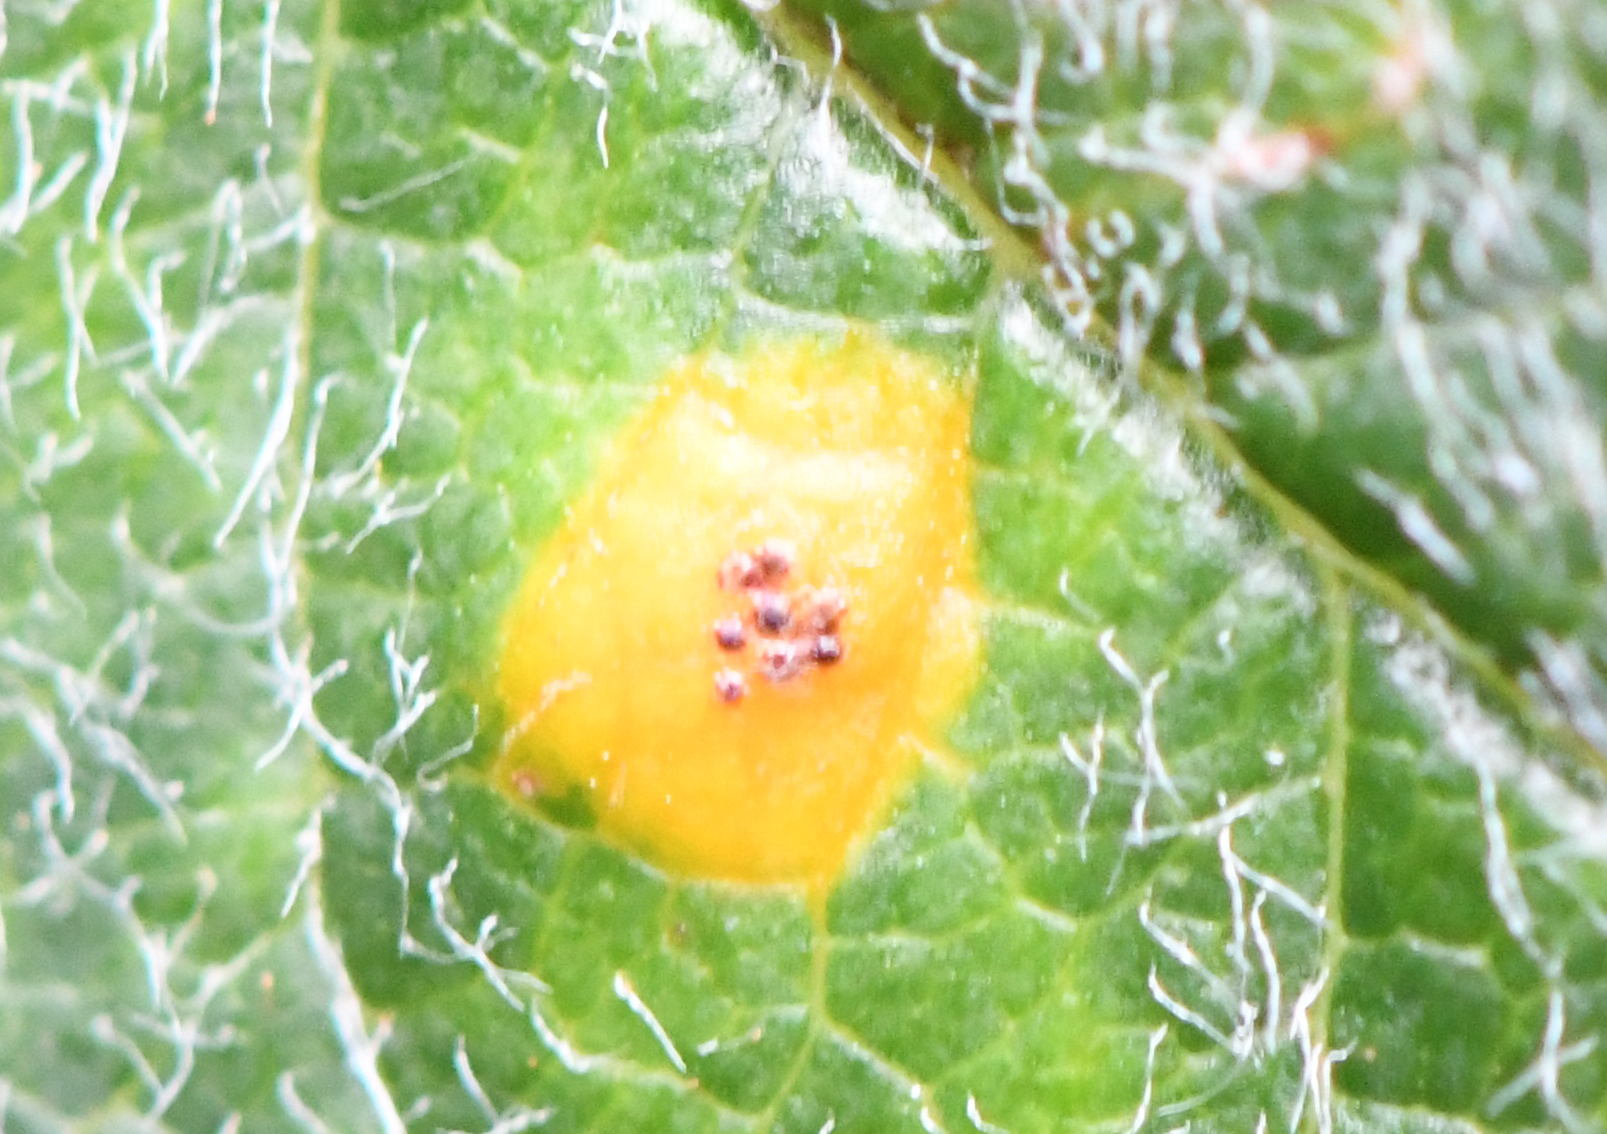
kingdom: Fungi
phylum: Basidiomycota
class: Pucciniomycetes
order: Pucciniales
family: Gymnosporangiaceae
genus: Gymnosporangium
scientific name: Gymnosporangium
